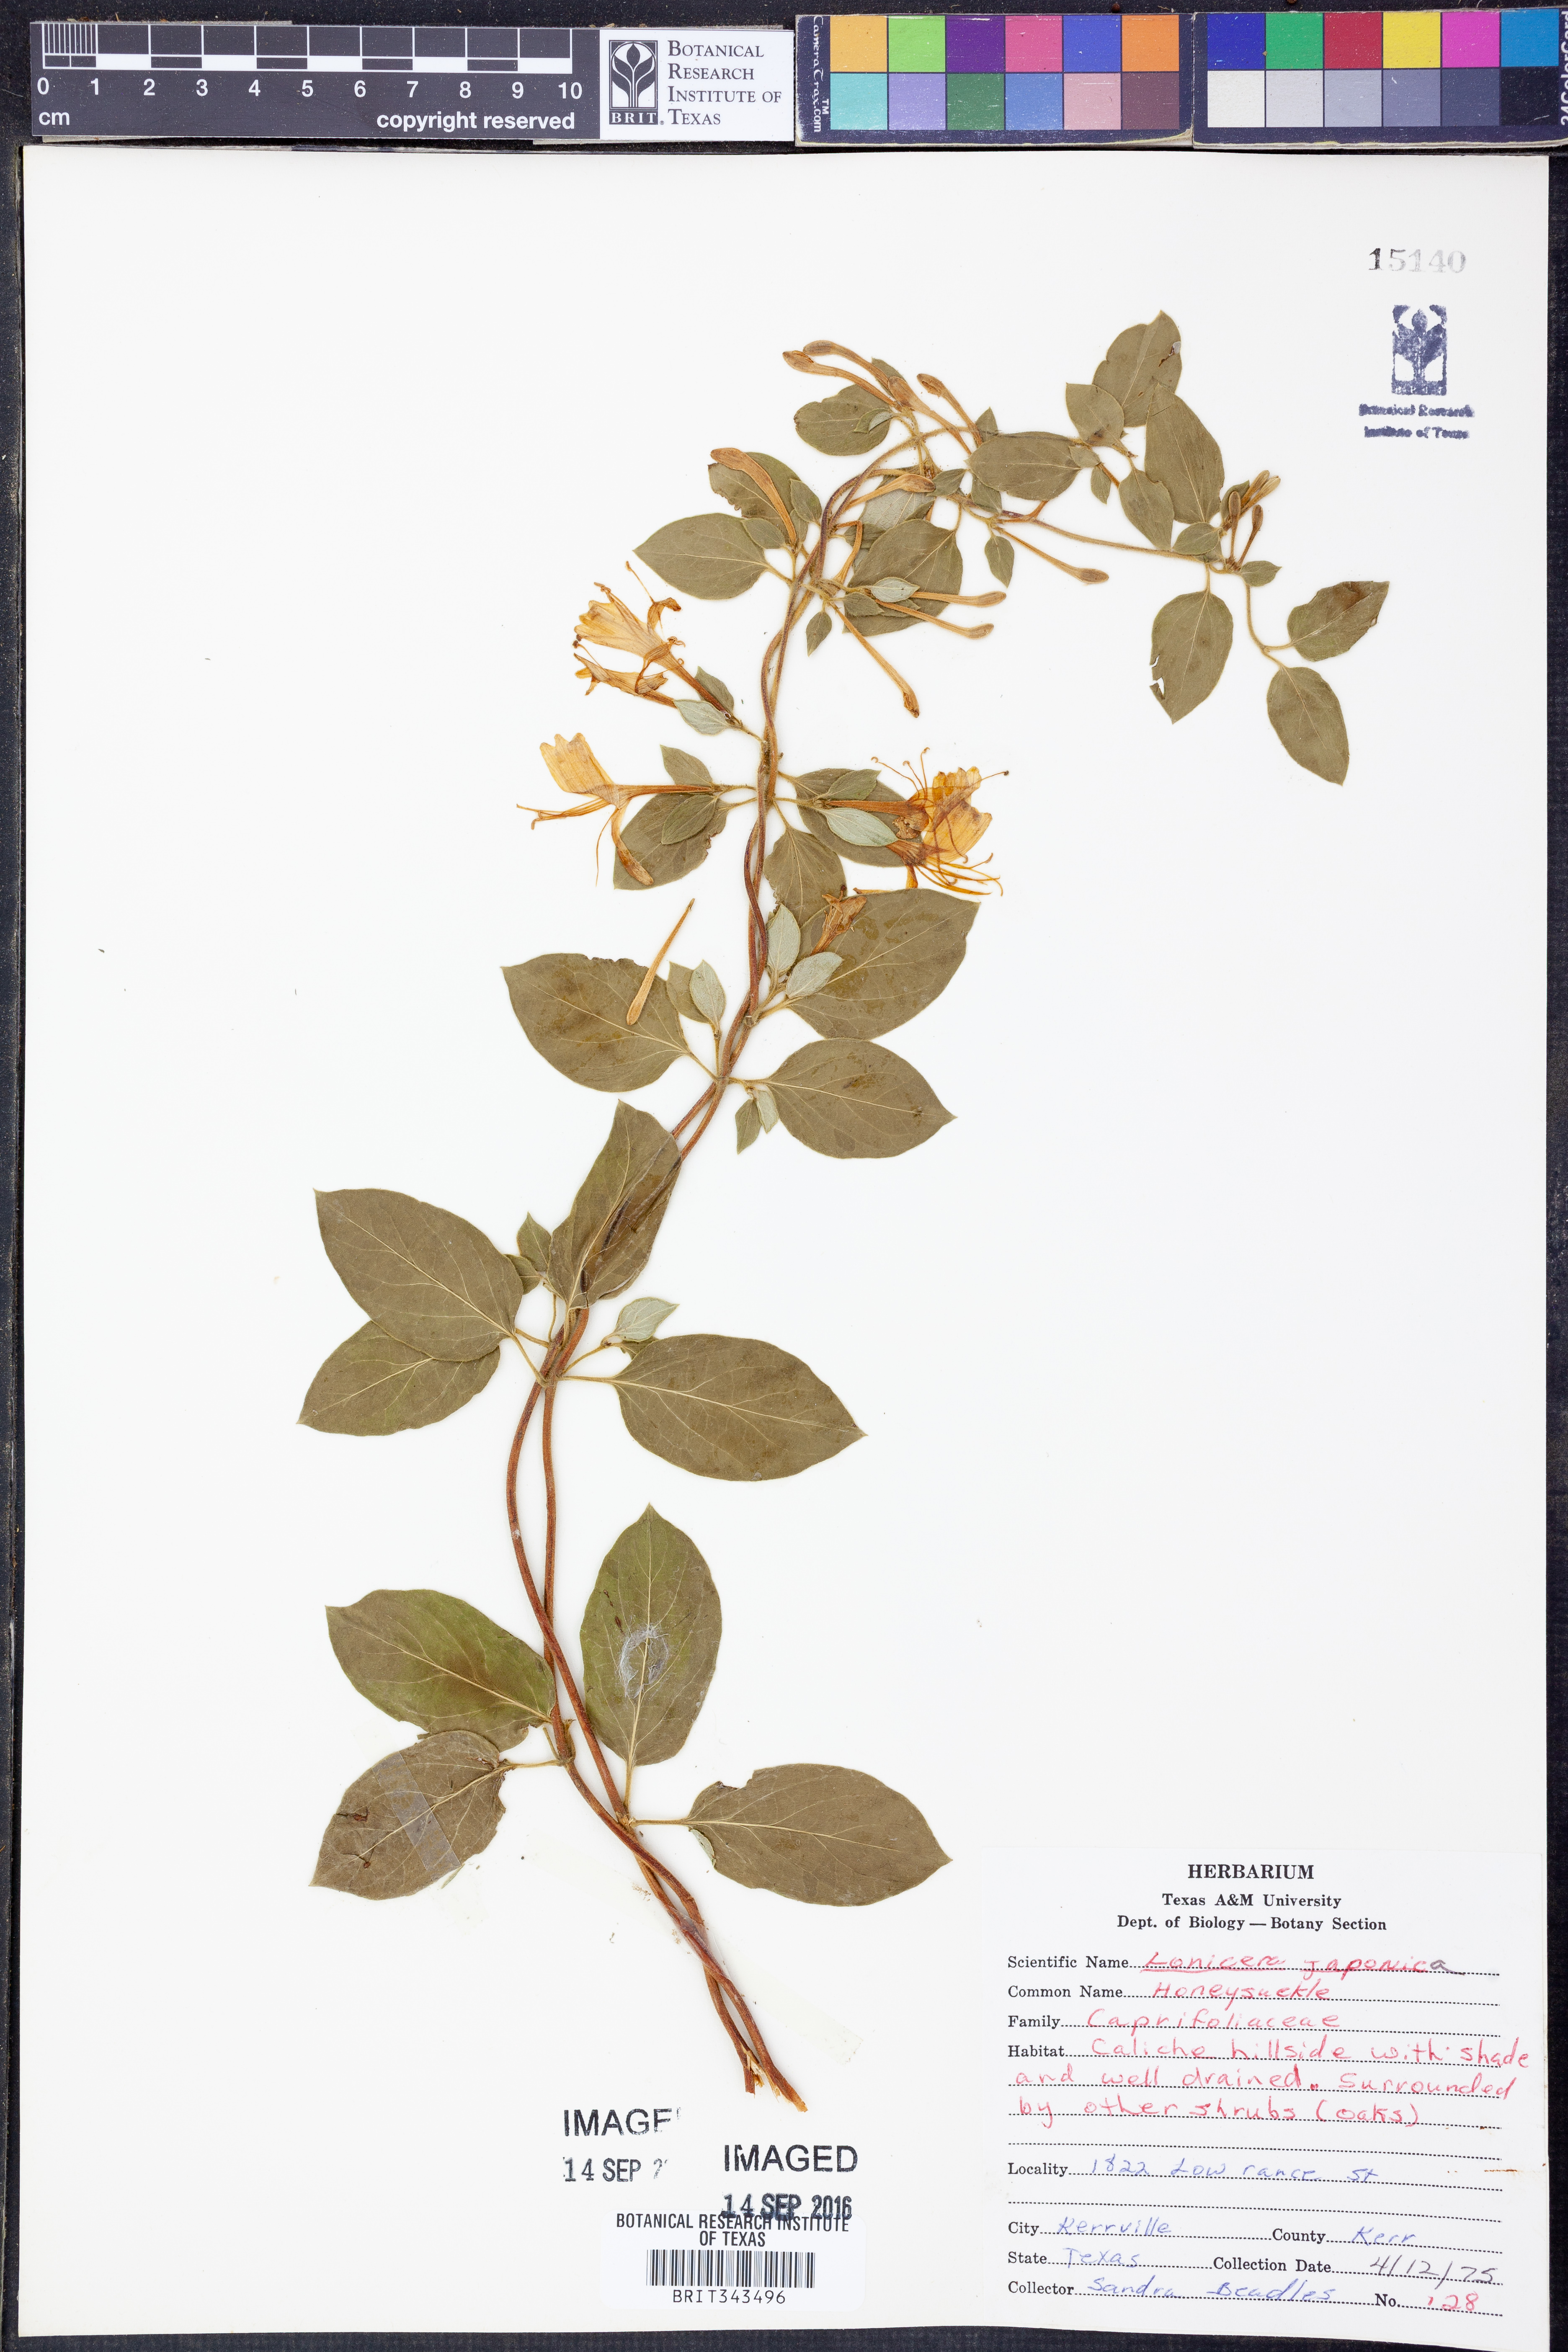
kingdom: Plantae
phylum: Tracheophyta
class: Magnoliopsida
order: Dipsacales
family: Caprifoliaceae
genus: Lonicera
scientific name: Lonicera japonica
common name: Japanese honeysuckle
